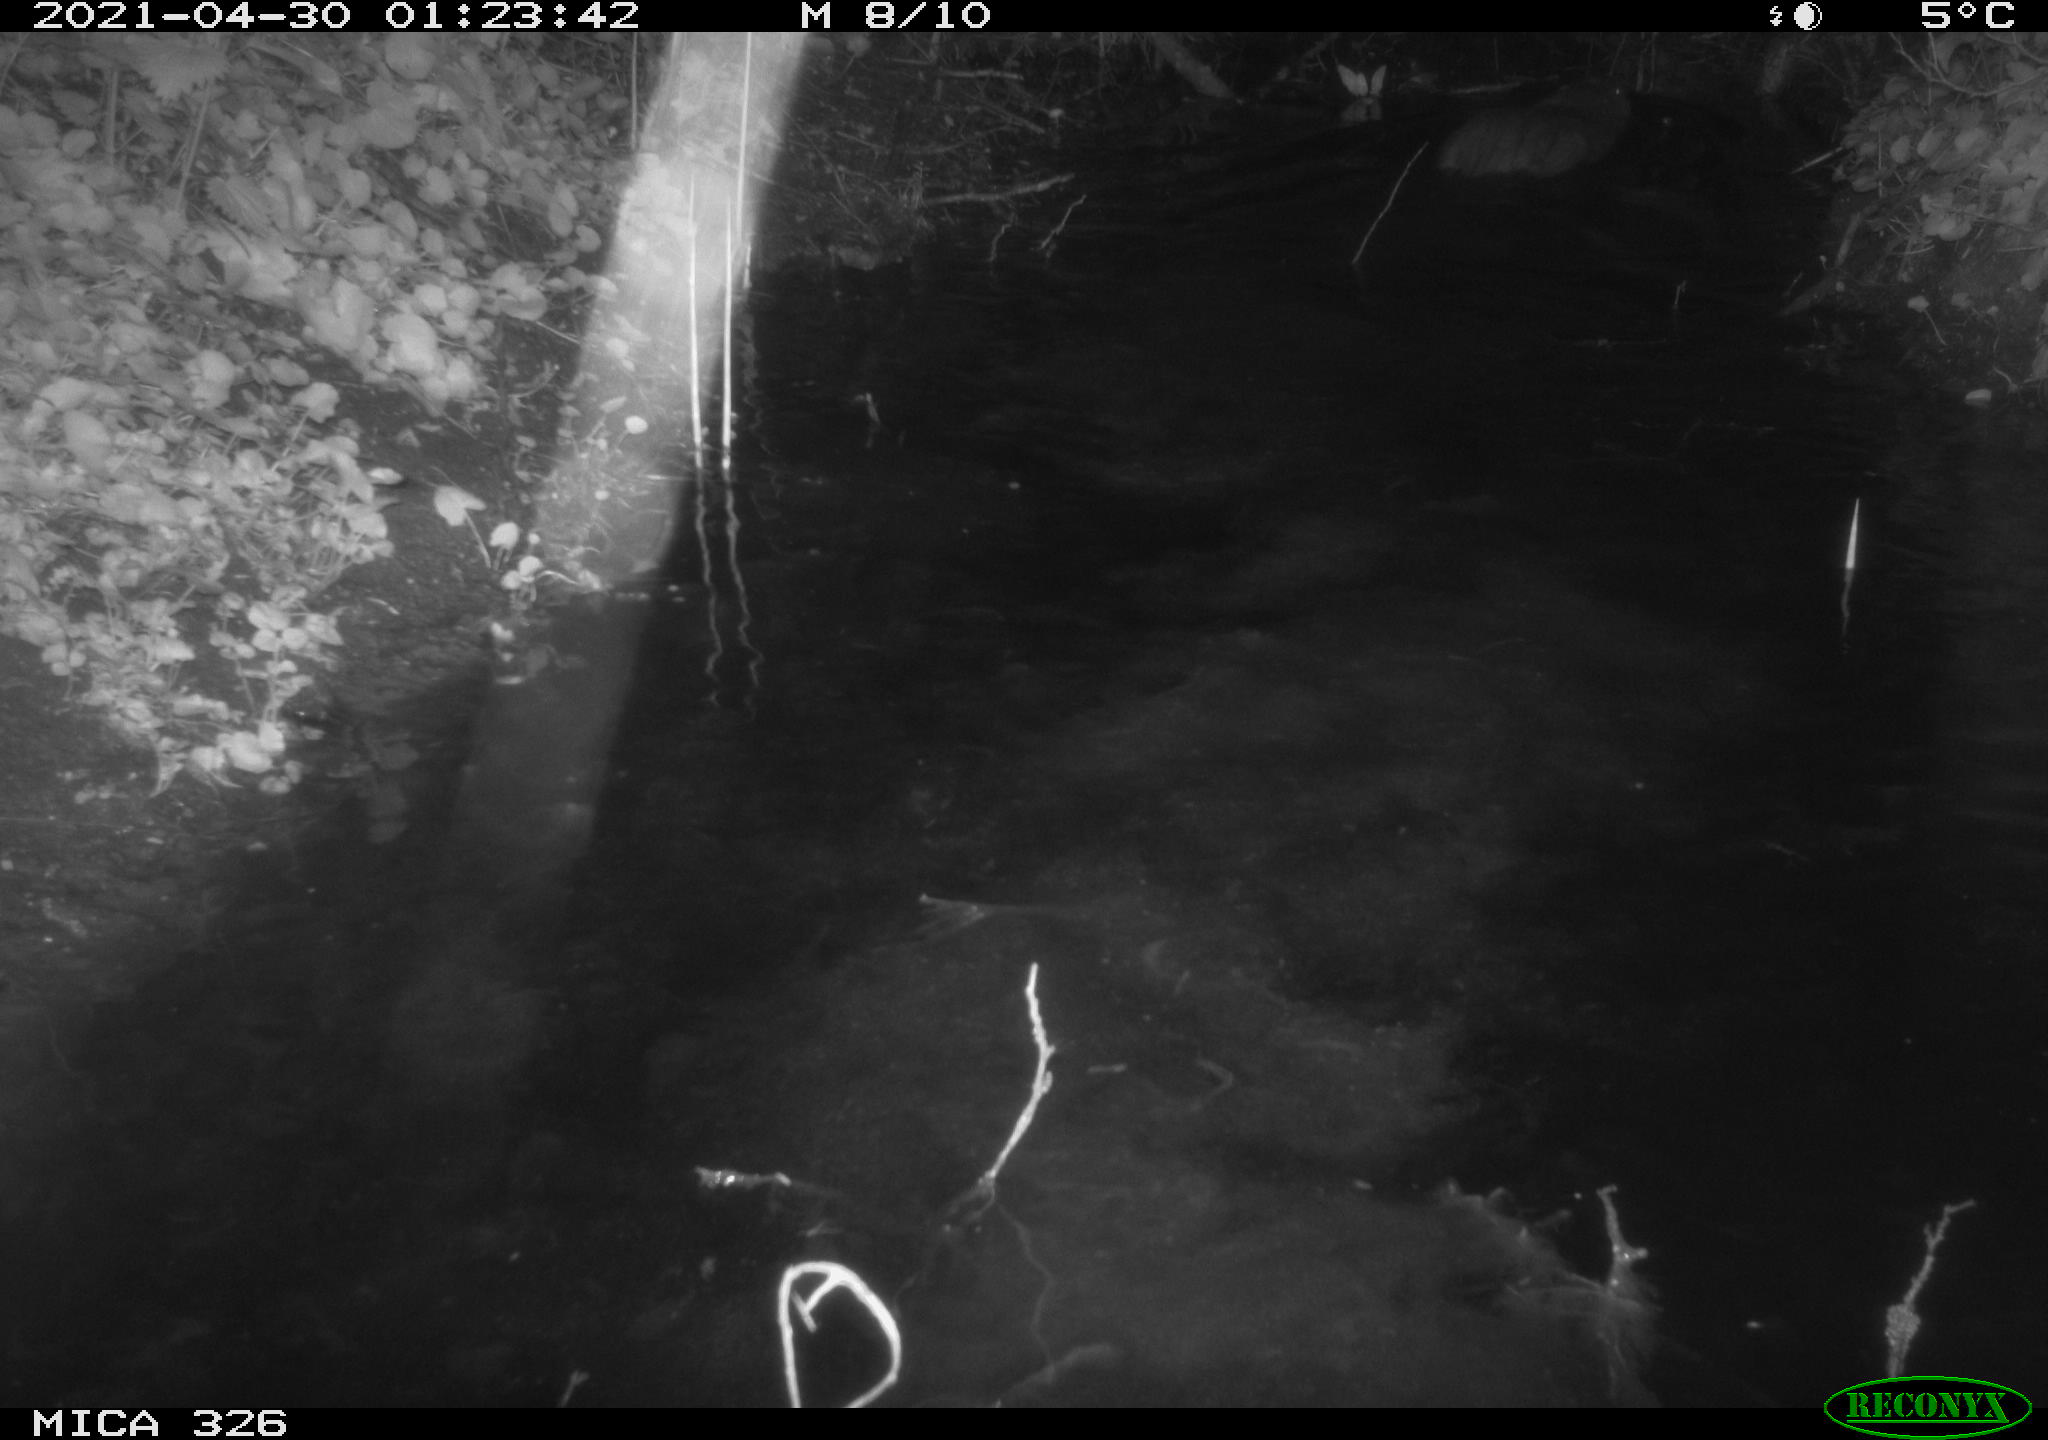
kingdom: Animalia
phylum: Chordata
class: Mammalia
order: Rodentia
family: Myocastoridae
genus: Myocastor
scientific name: Myocastor coypus
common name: Coypu
